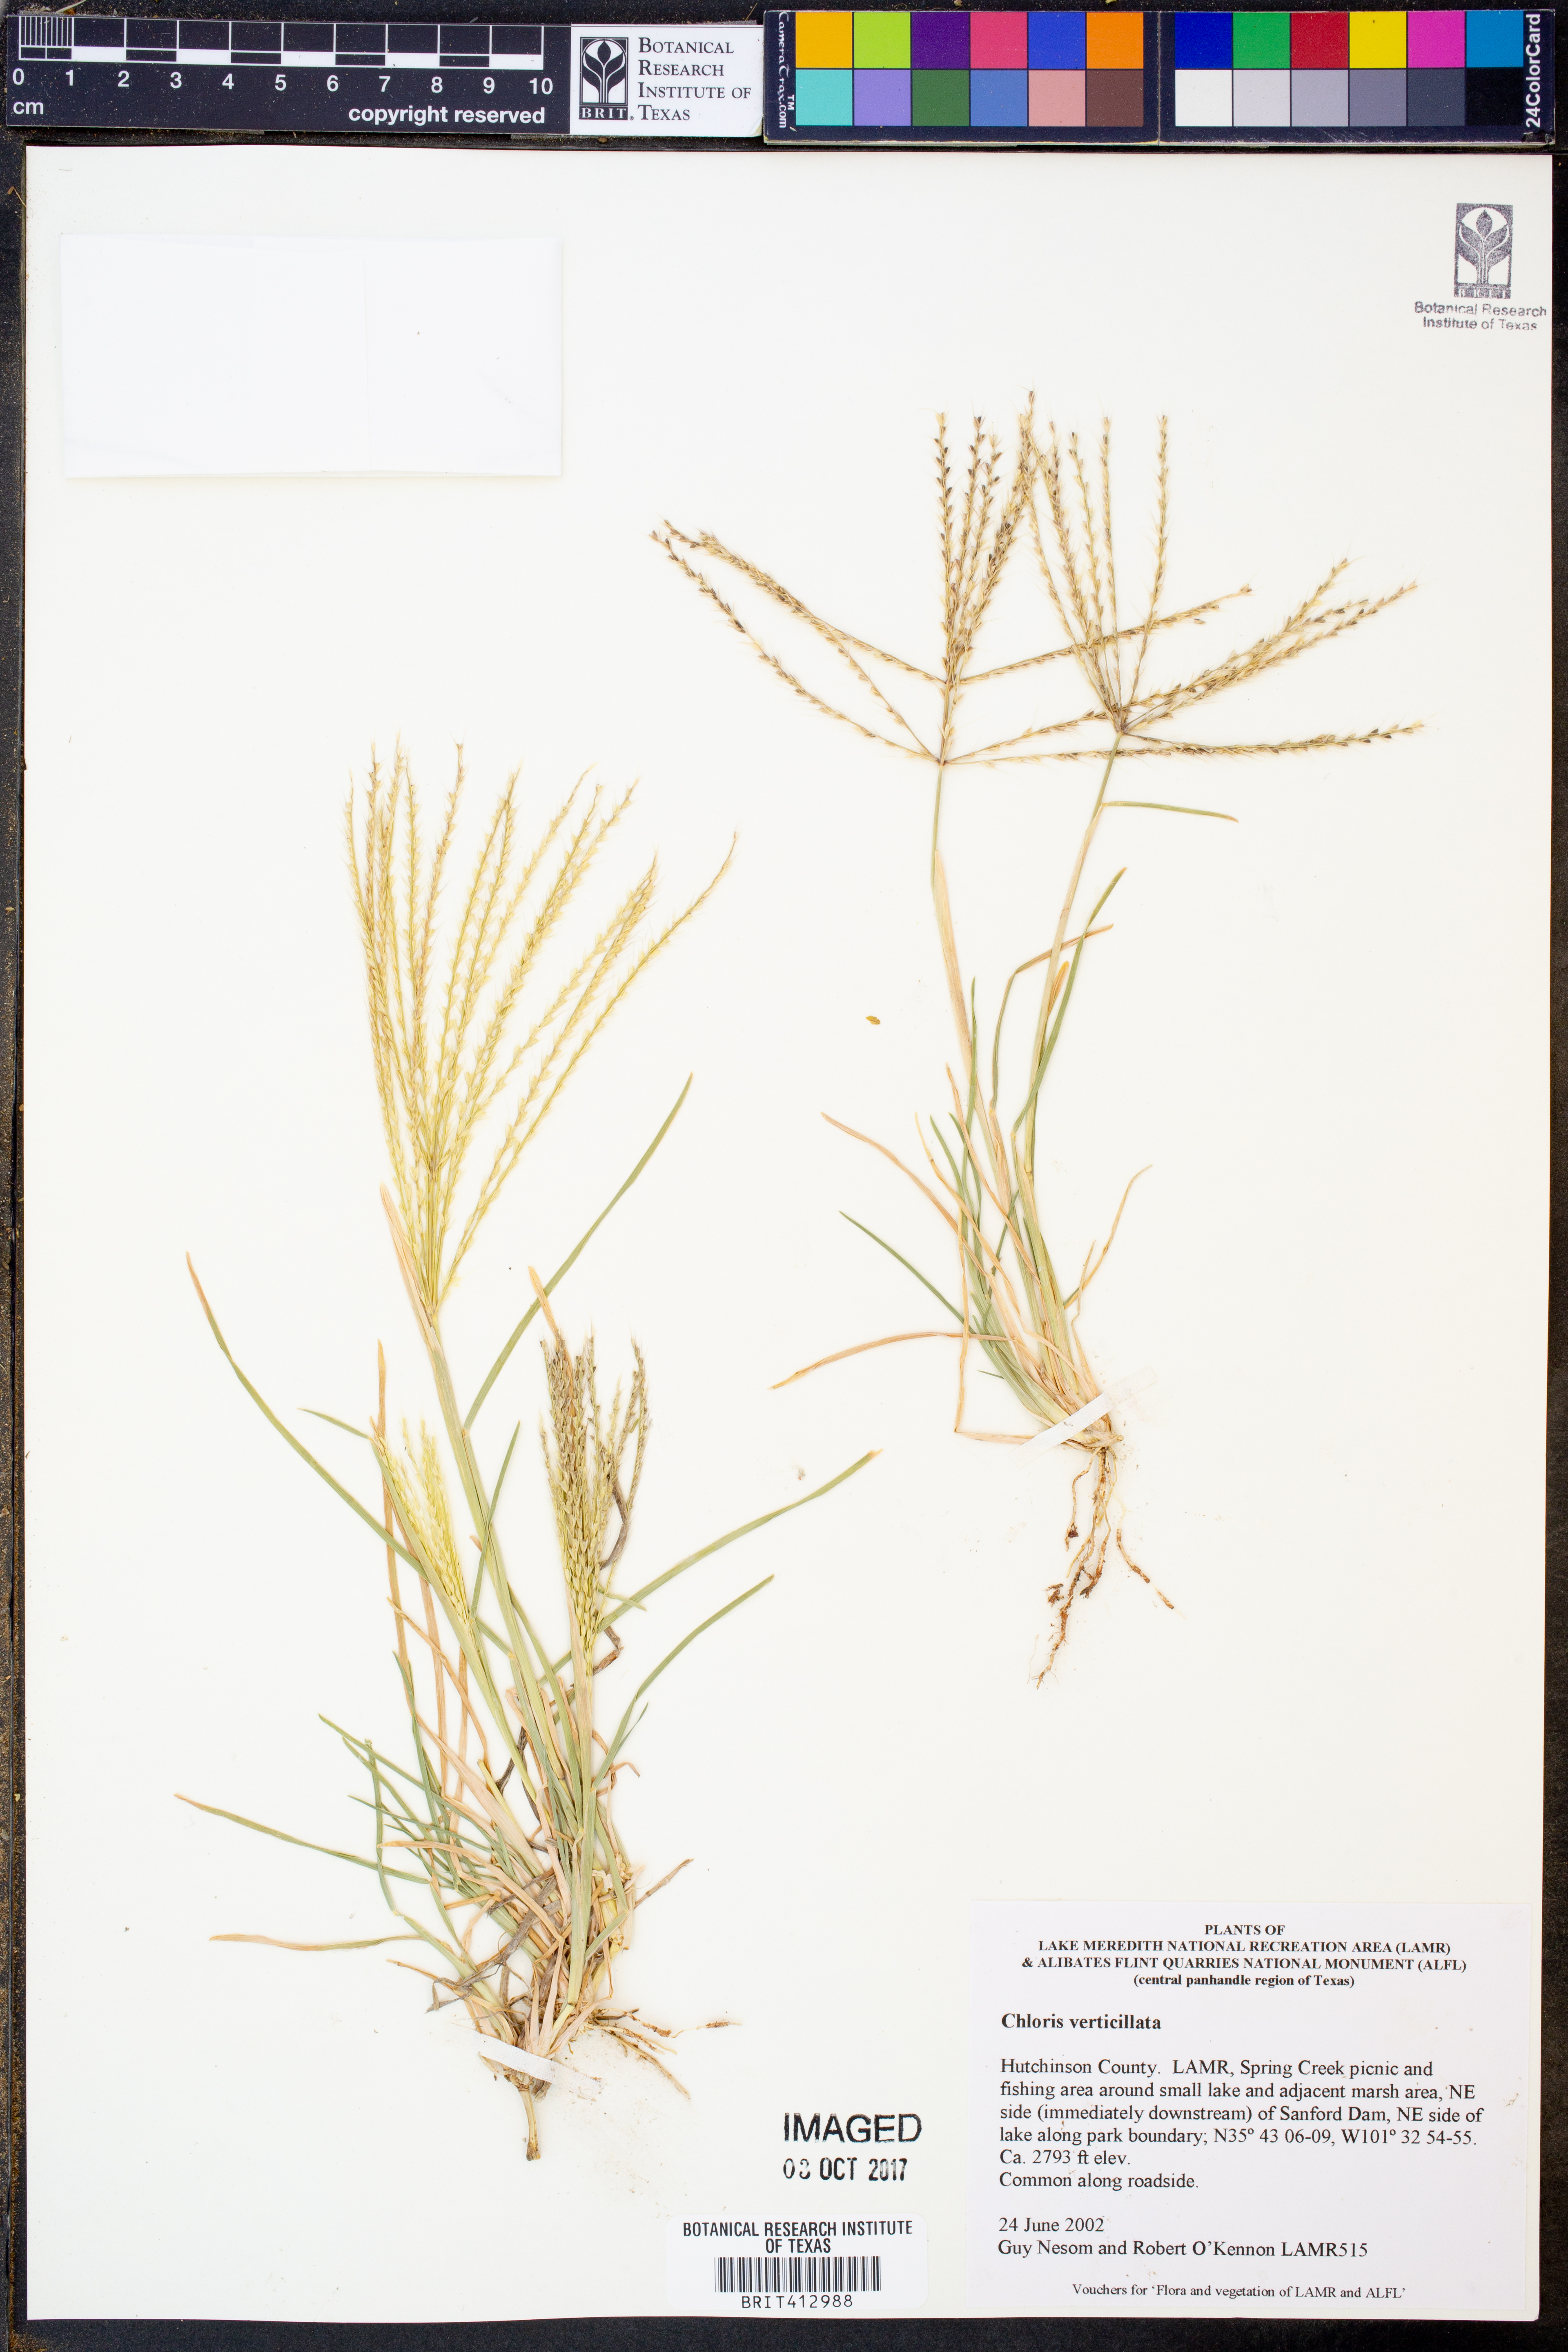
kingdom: Plantae
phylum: Tracheophyta
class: Liliopsida
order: Poales
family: Poaceae
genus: Chloris
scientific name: Chloris verticillata
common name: Tumble windmill grass
